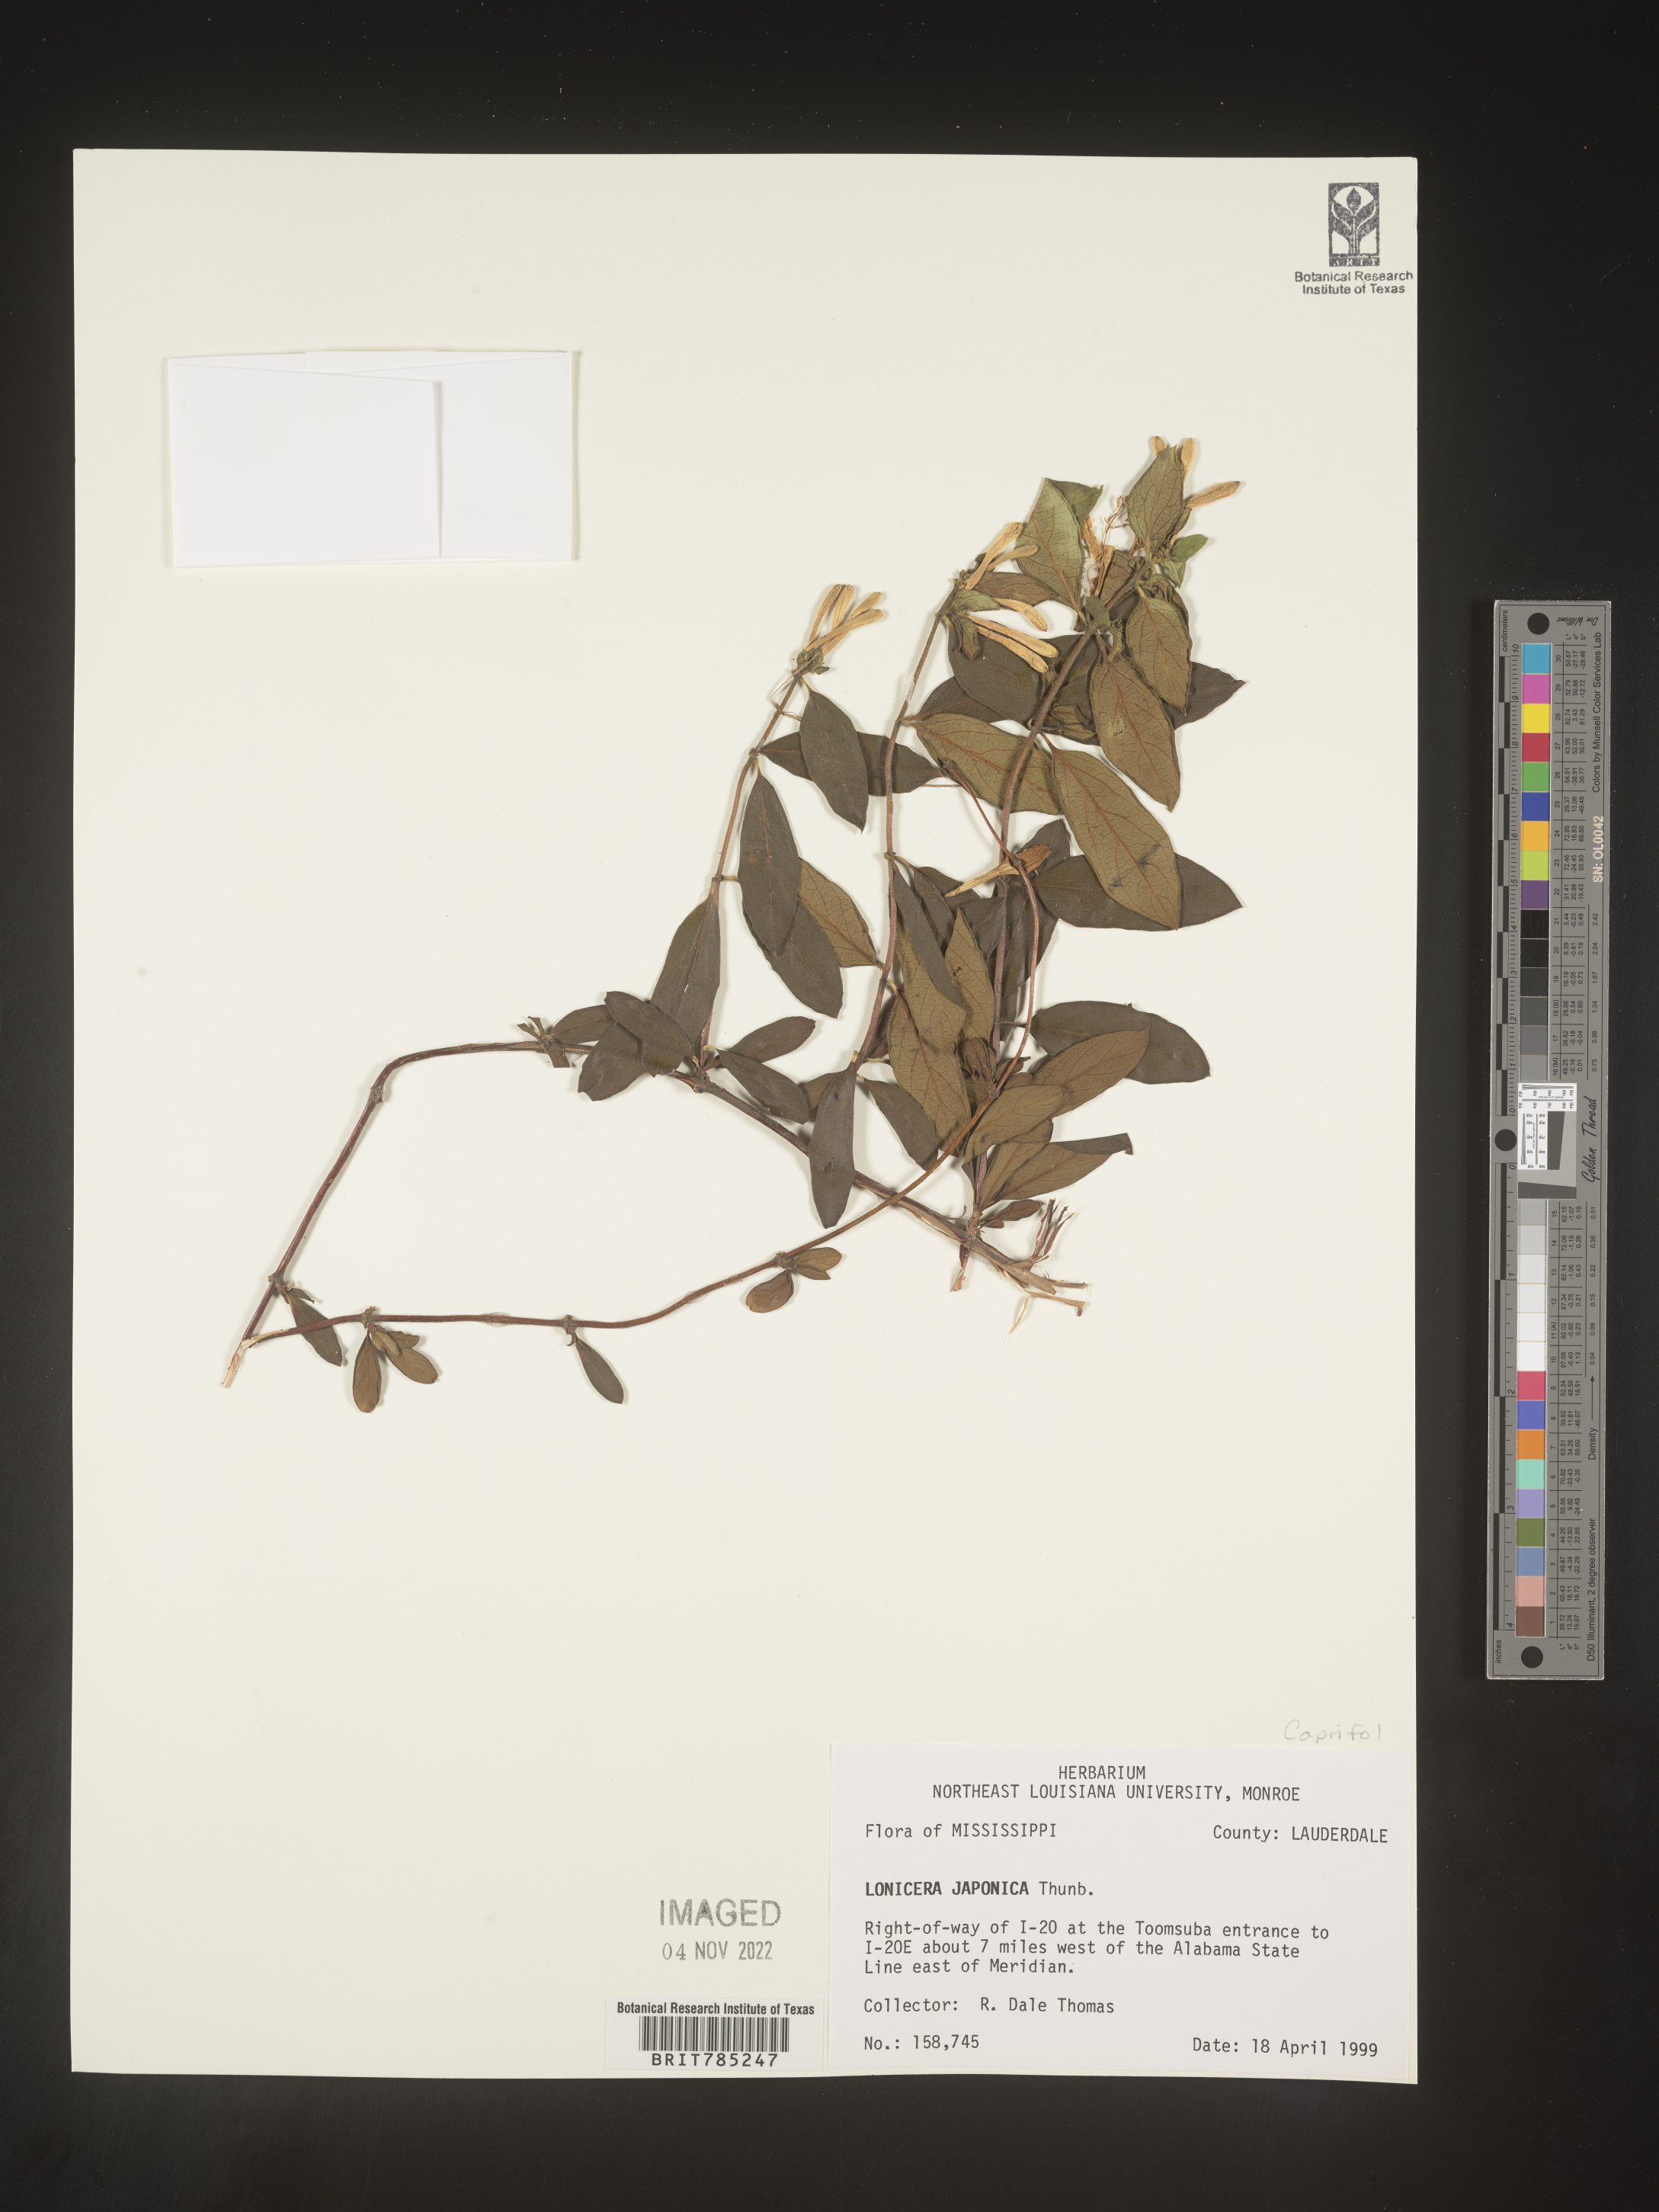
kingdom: Plantae
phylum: Tracheophyta
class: Magnoliopsida
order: Dipsacales
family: Caprifoliaceae
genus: Lonicera
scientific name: Lonicera japonica
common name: Japanese honeysuckle
